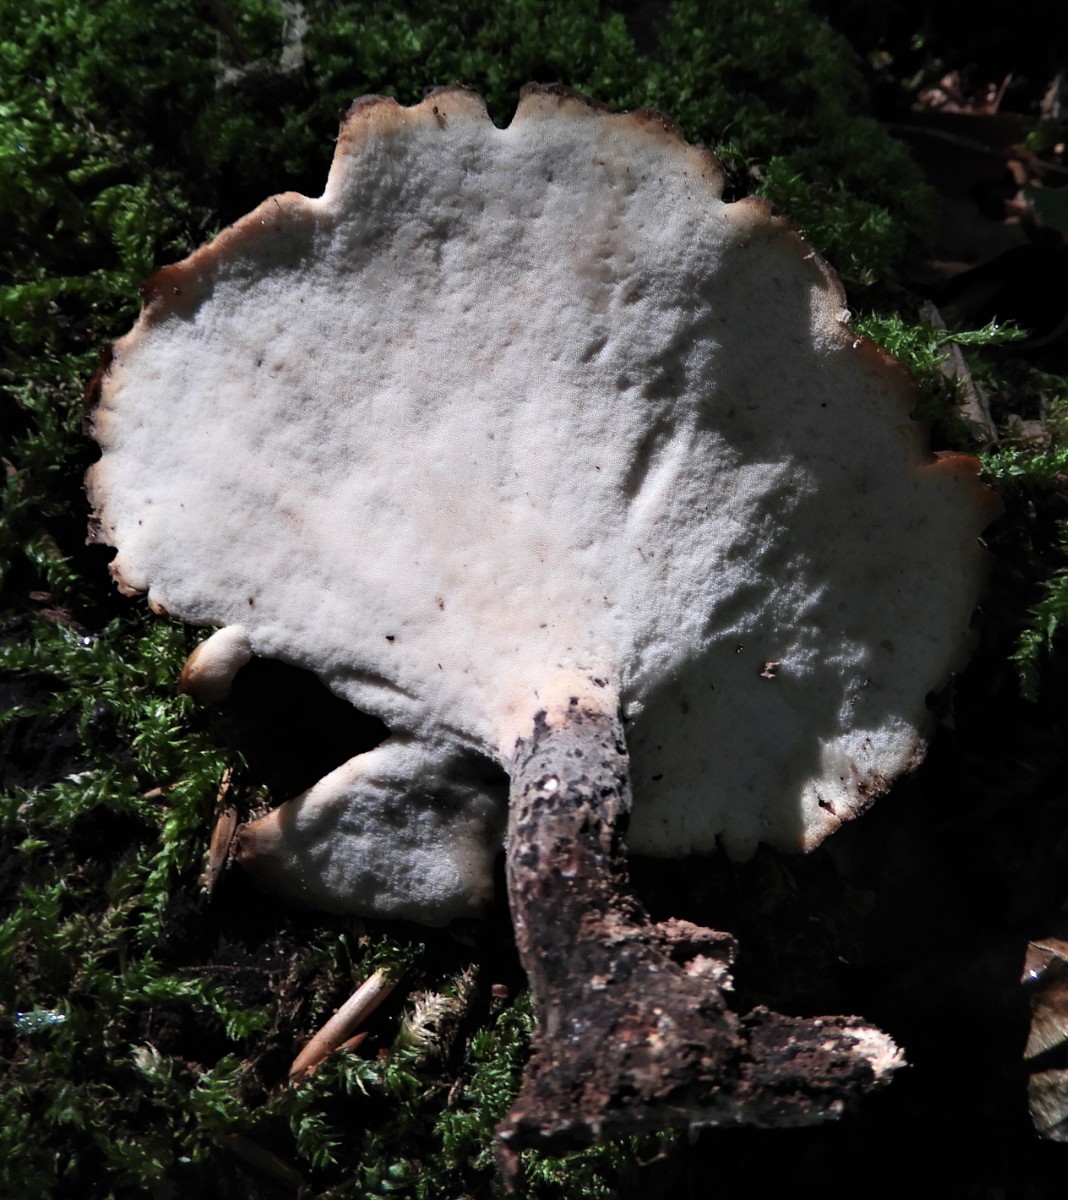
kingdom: Fungi
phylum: Basidiomycota
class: Agaricomycetes
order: Polyporales
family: Polyporaceae
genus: Picipes
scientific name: Picipes badius
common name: kastaniebrun stilkporesvamp
